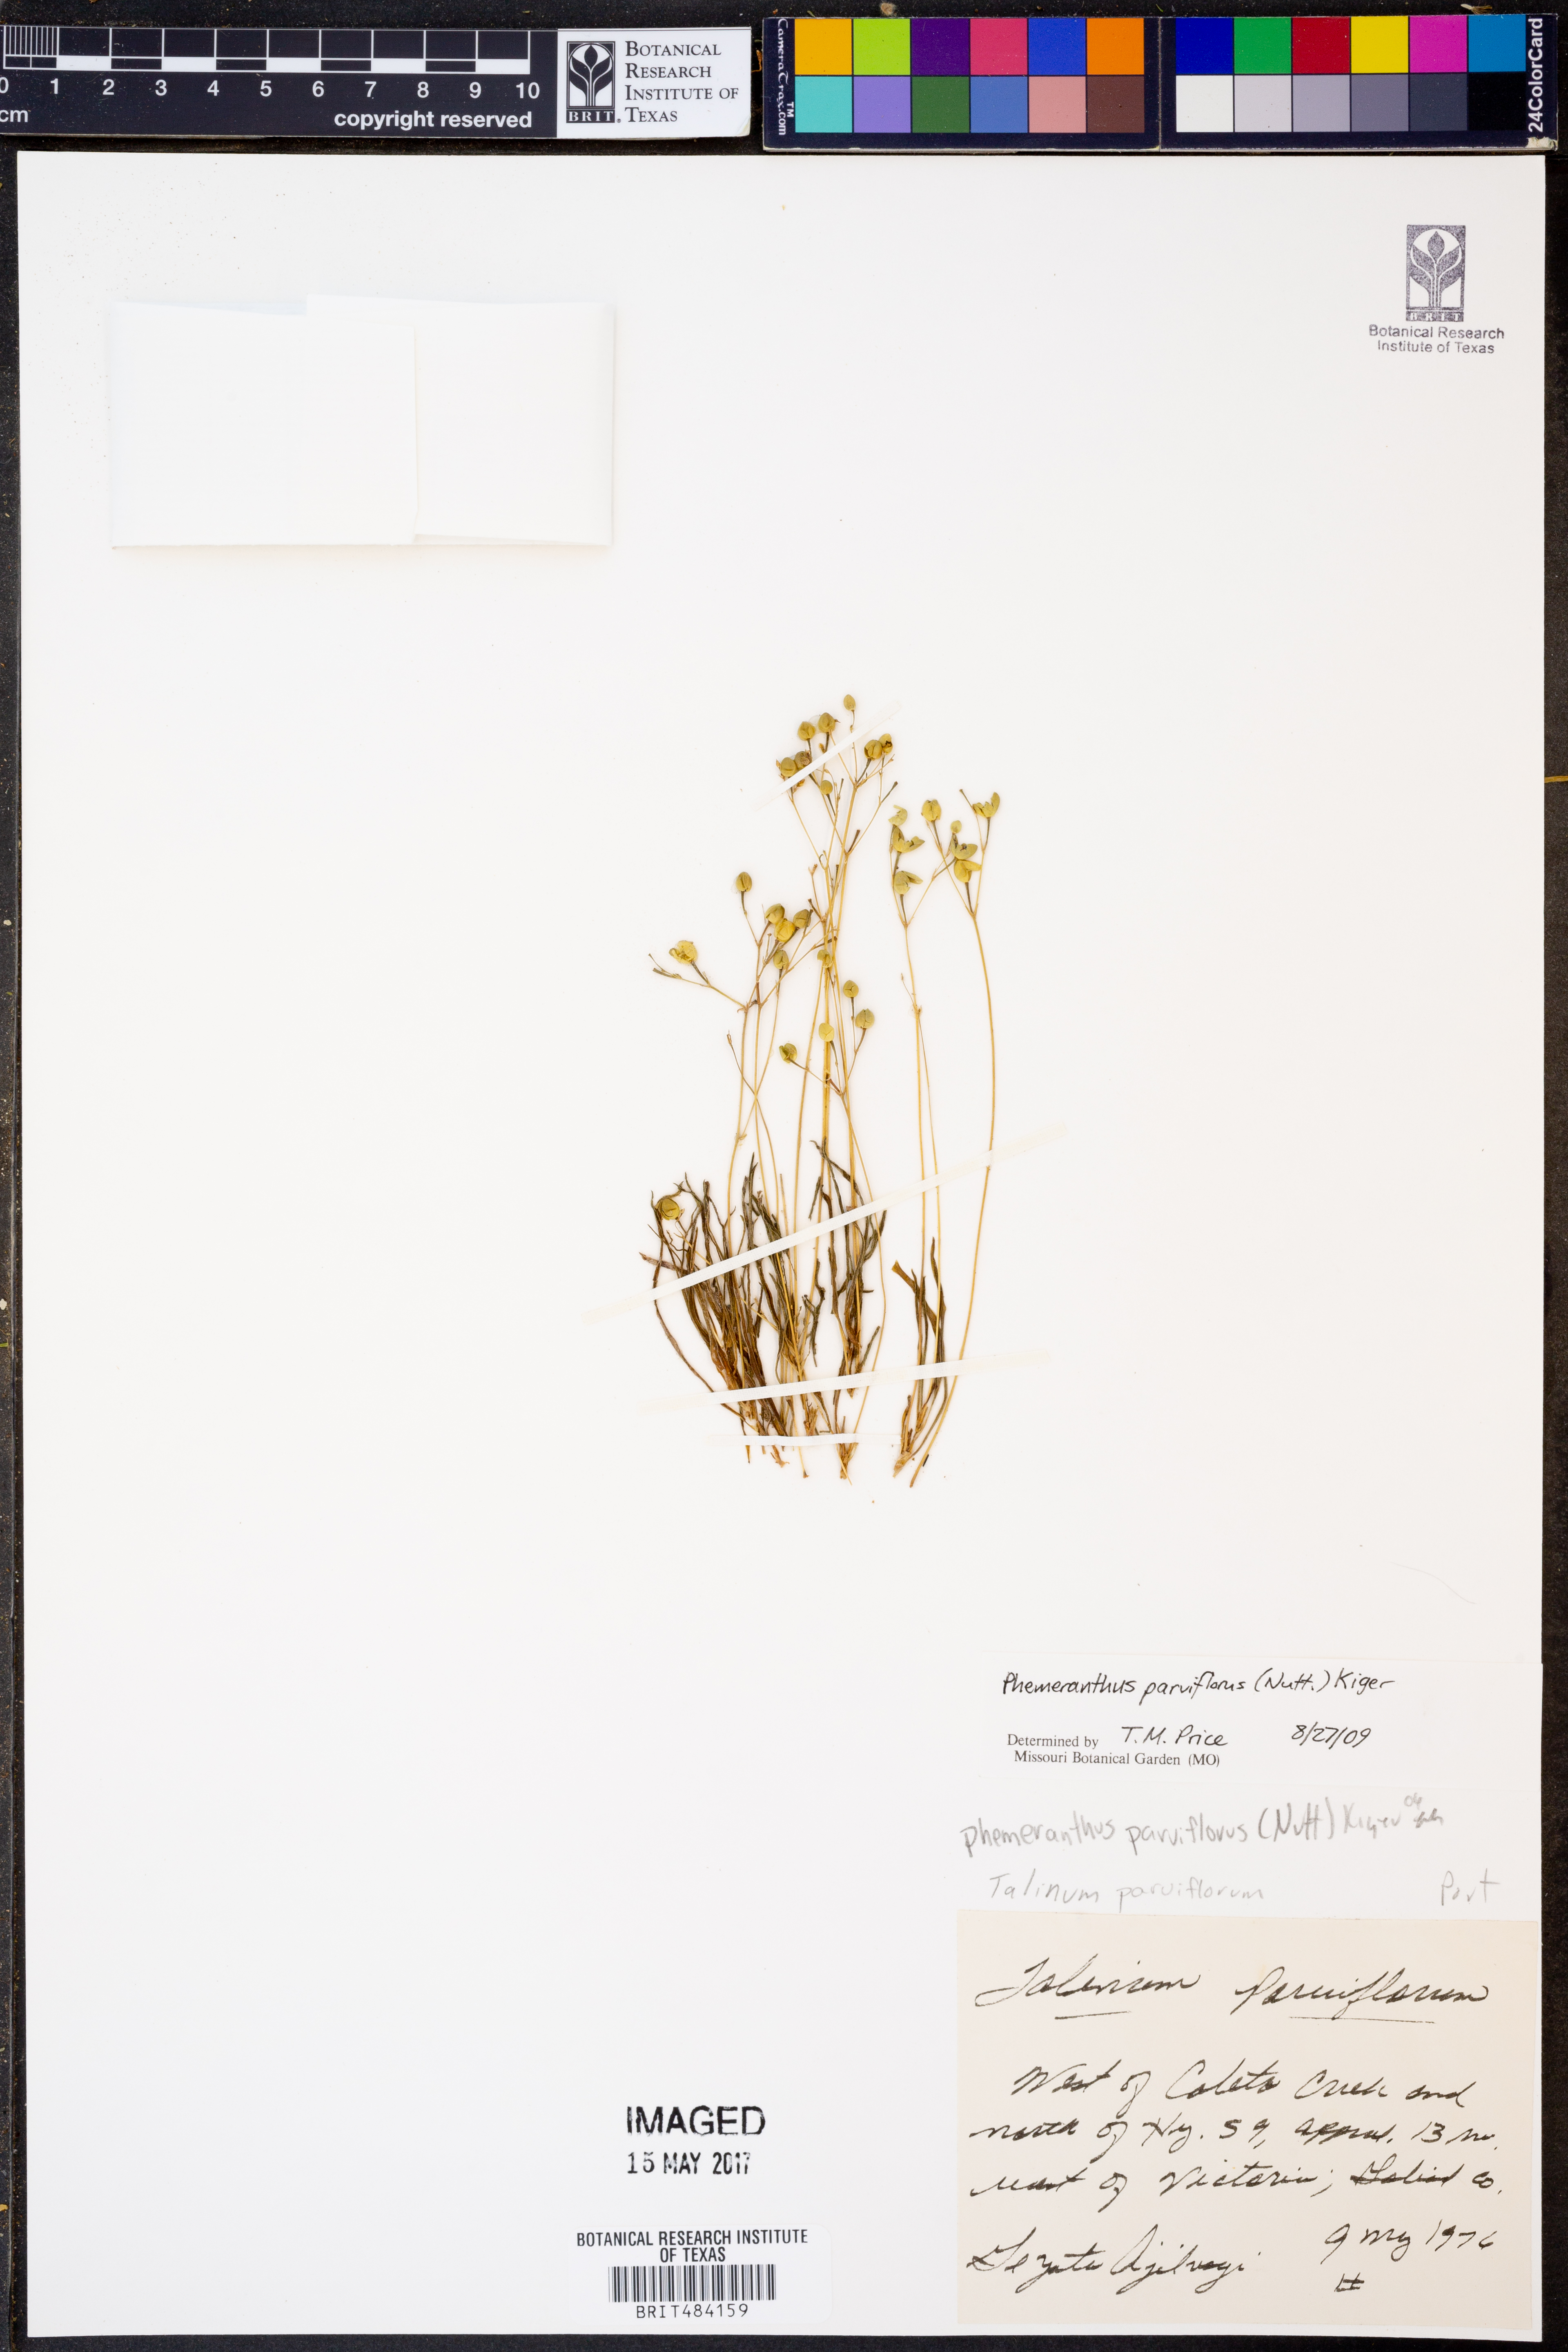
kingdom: Plantae
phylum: Tracheophyta
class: Magnoliopsida
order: Caryophyllales
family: Montiaceae
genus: Phemeranthus
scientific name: Phemeranthus parviflorus
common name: Sunbright
